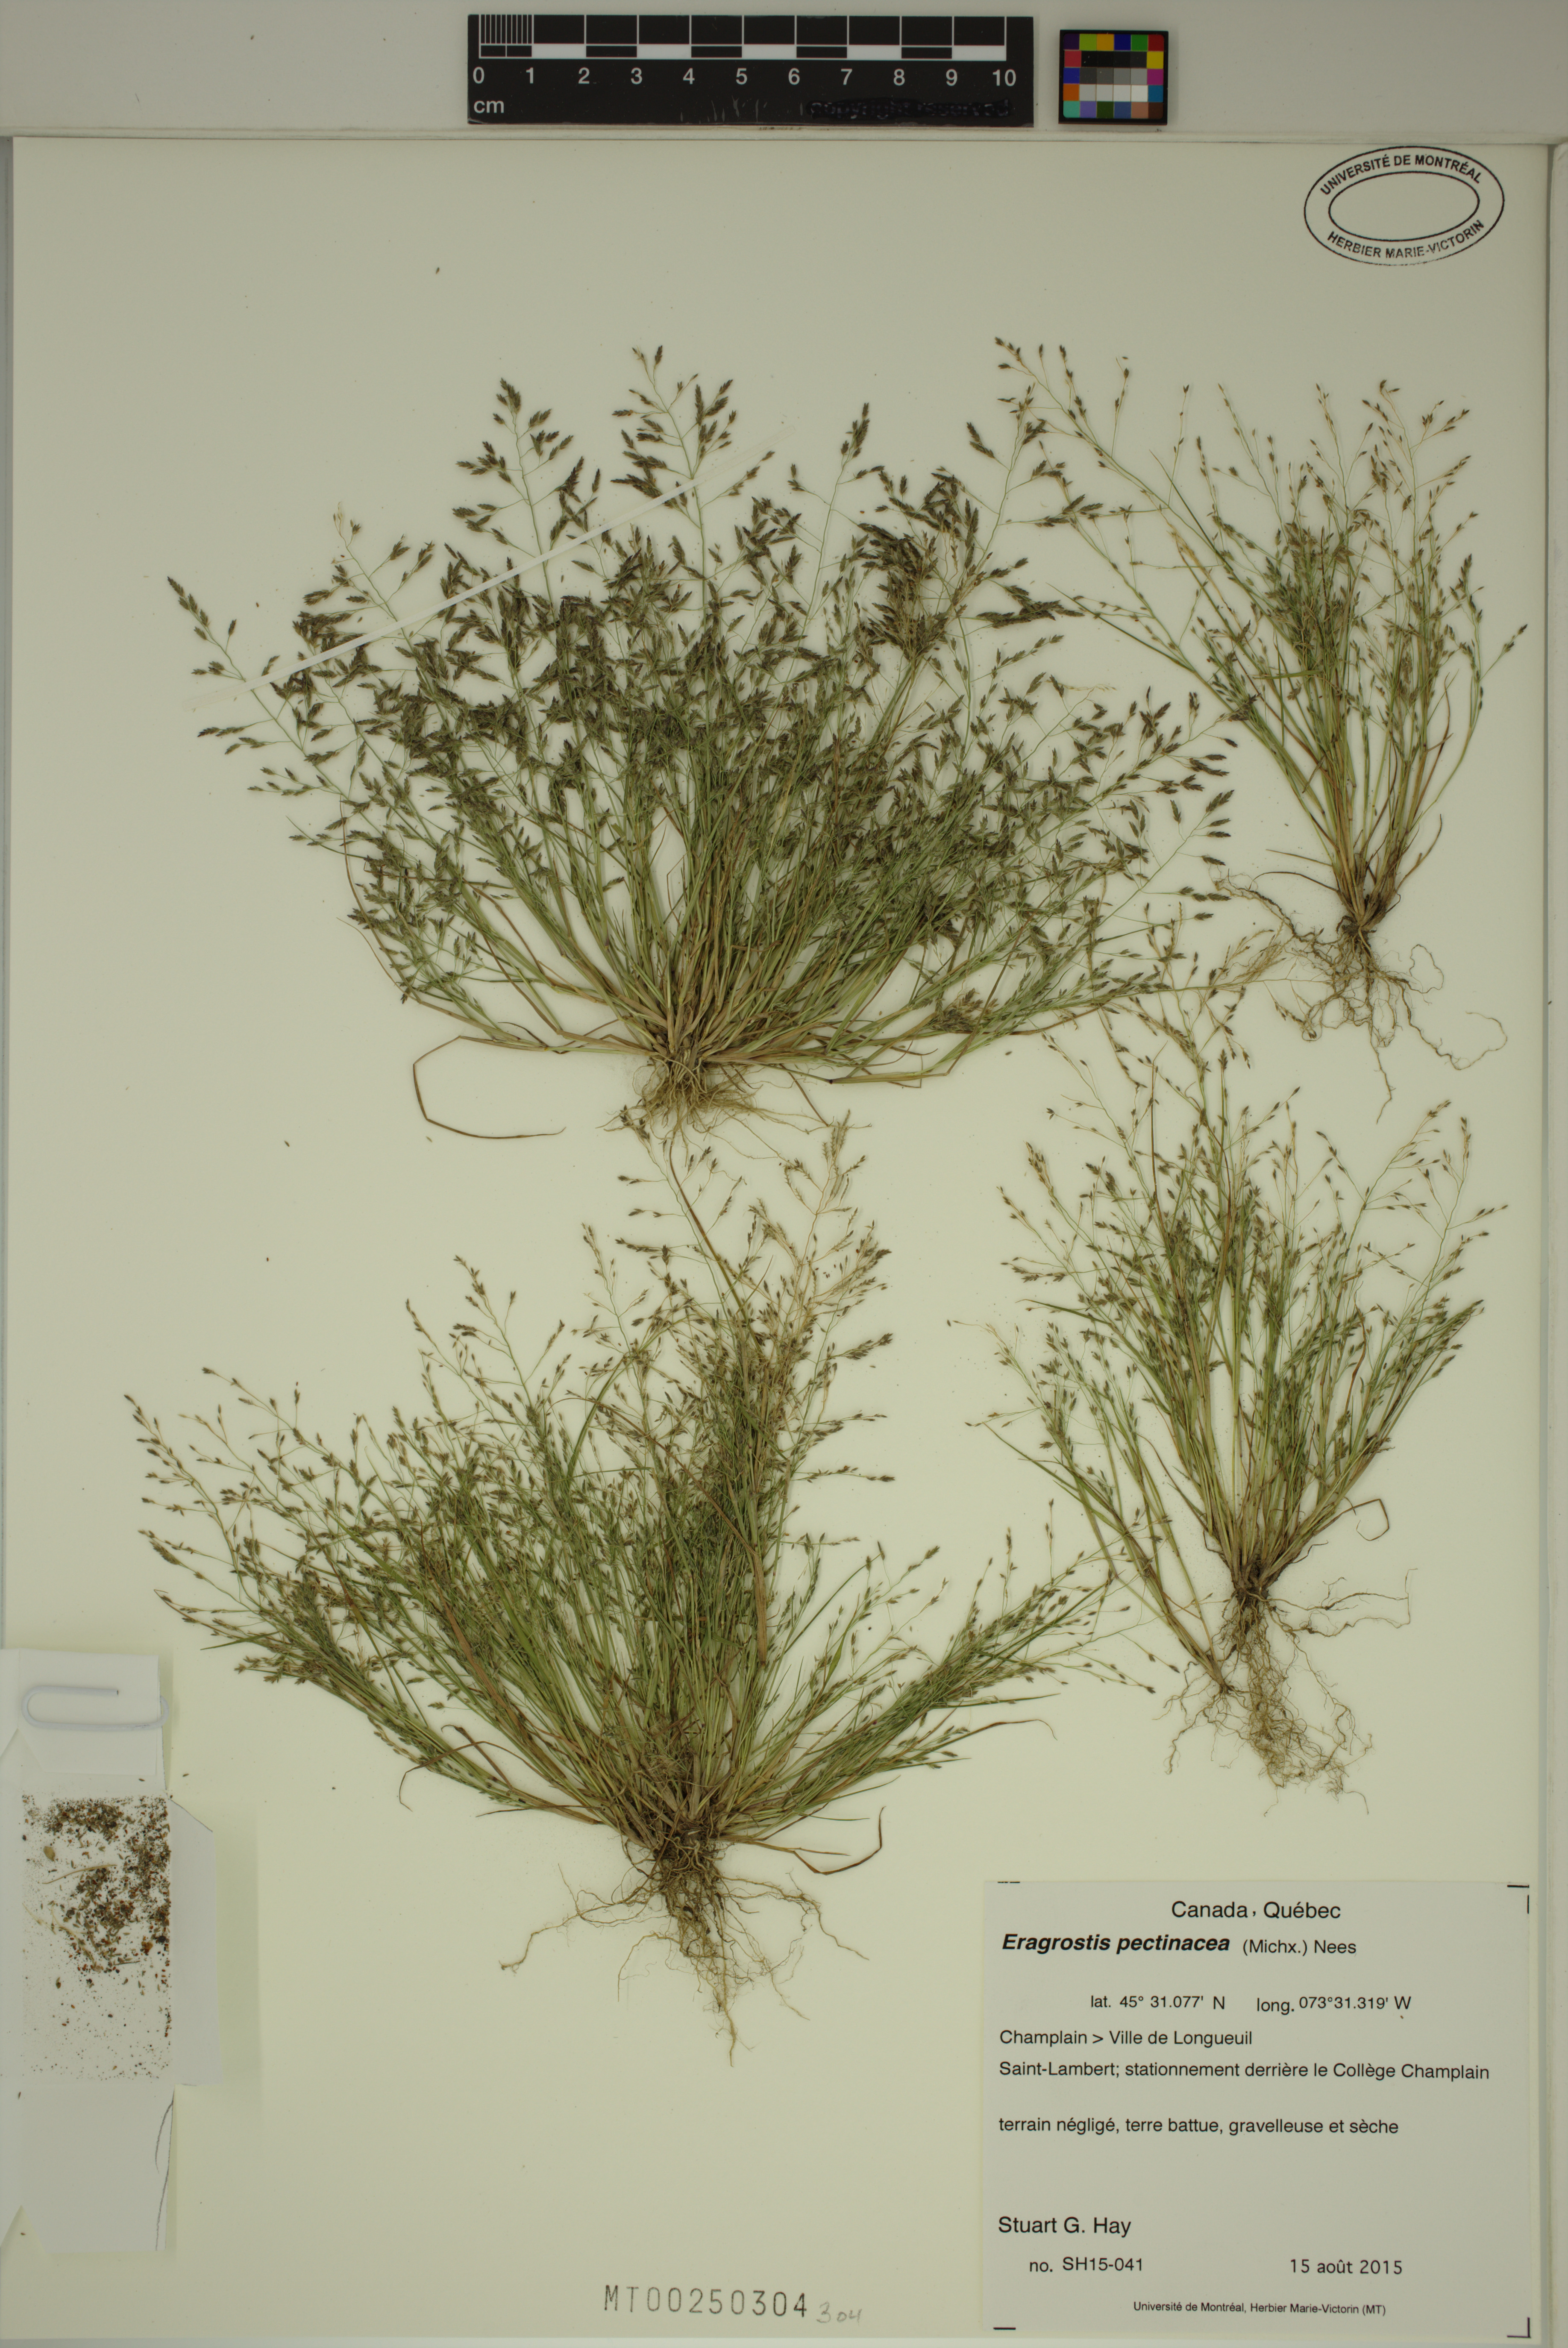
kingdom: Plantae
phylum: Tracheophyta
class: Liliopsida
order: Poales
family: Poaceae
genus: Eragrostis
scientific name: Eragrostis pectinacea
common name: Tufted lovegrass
